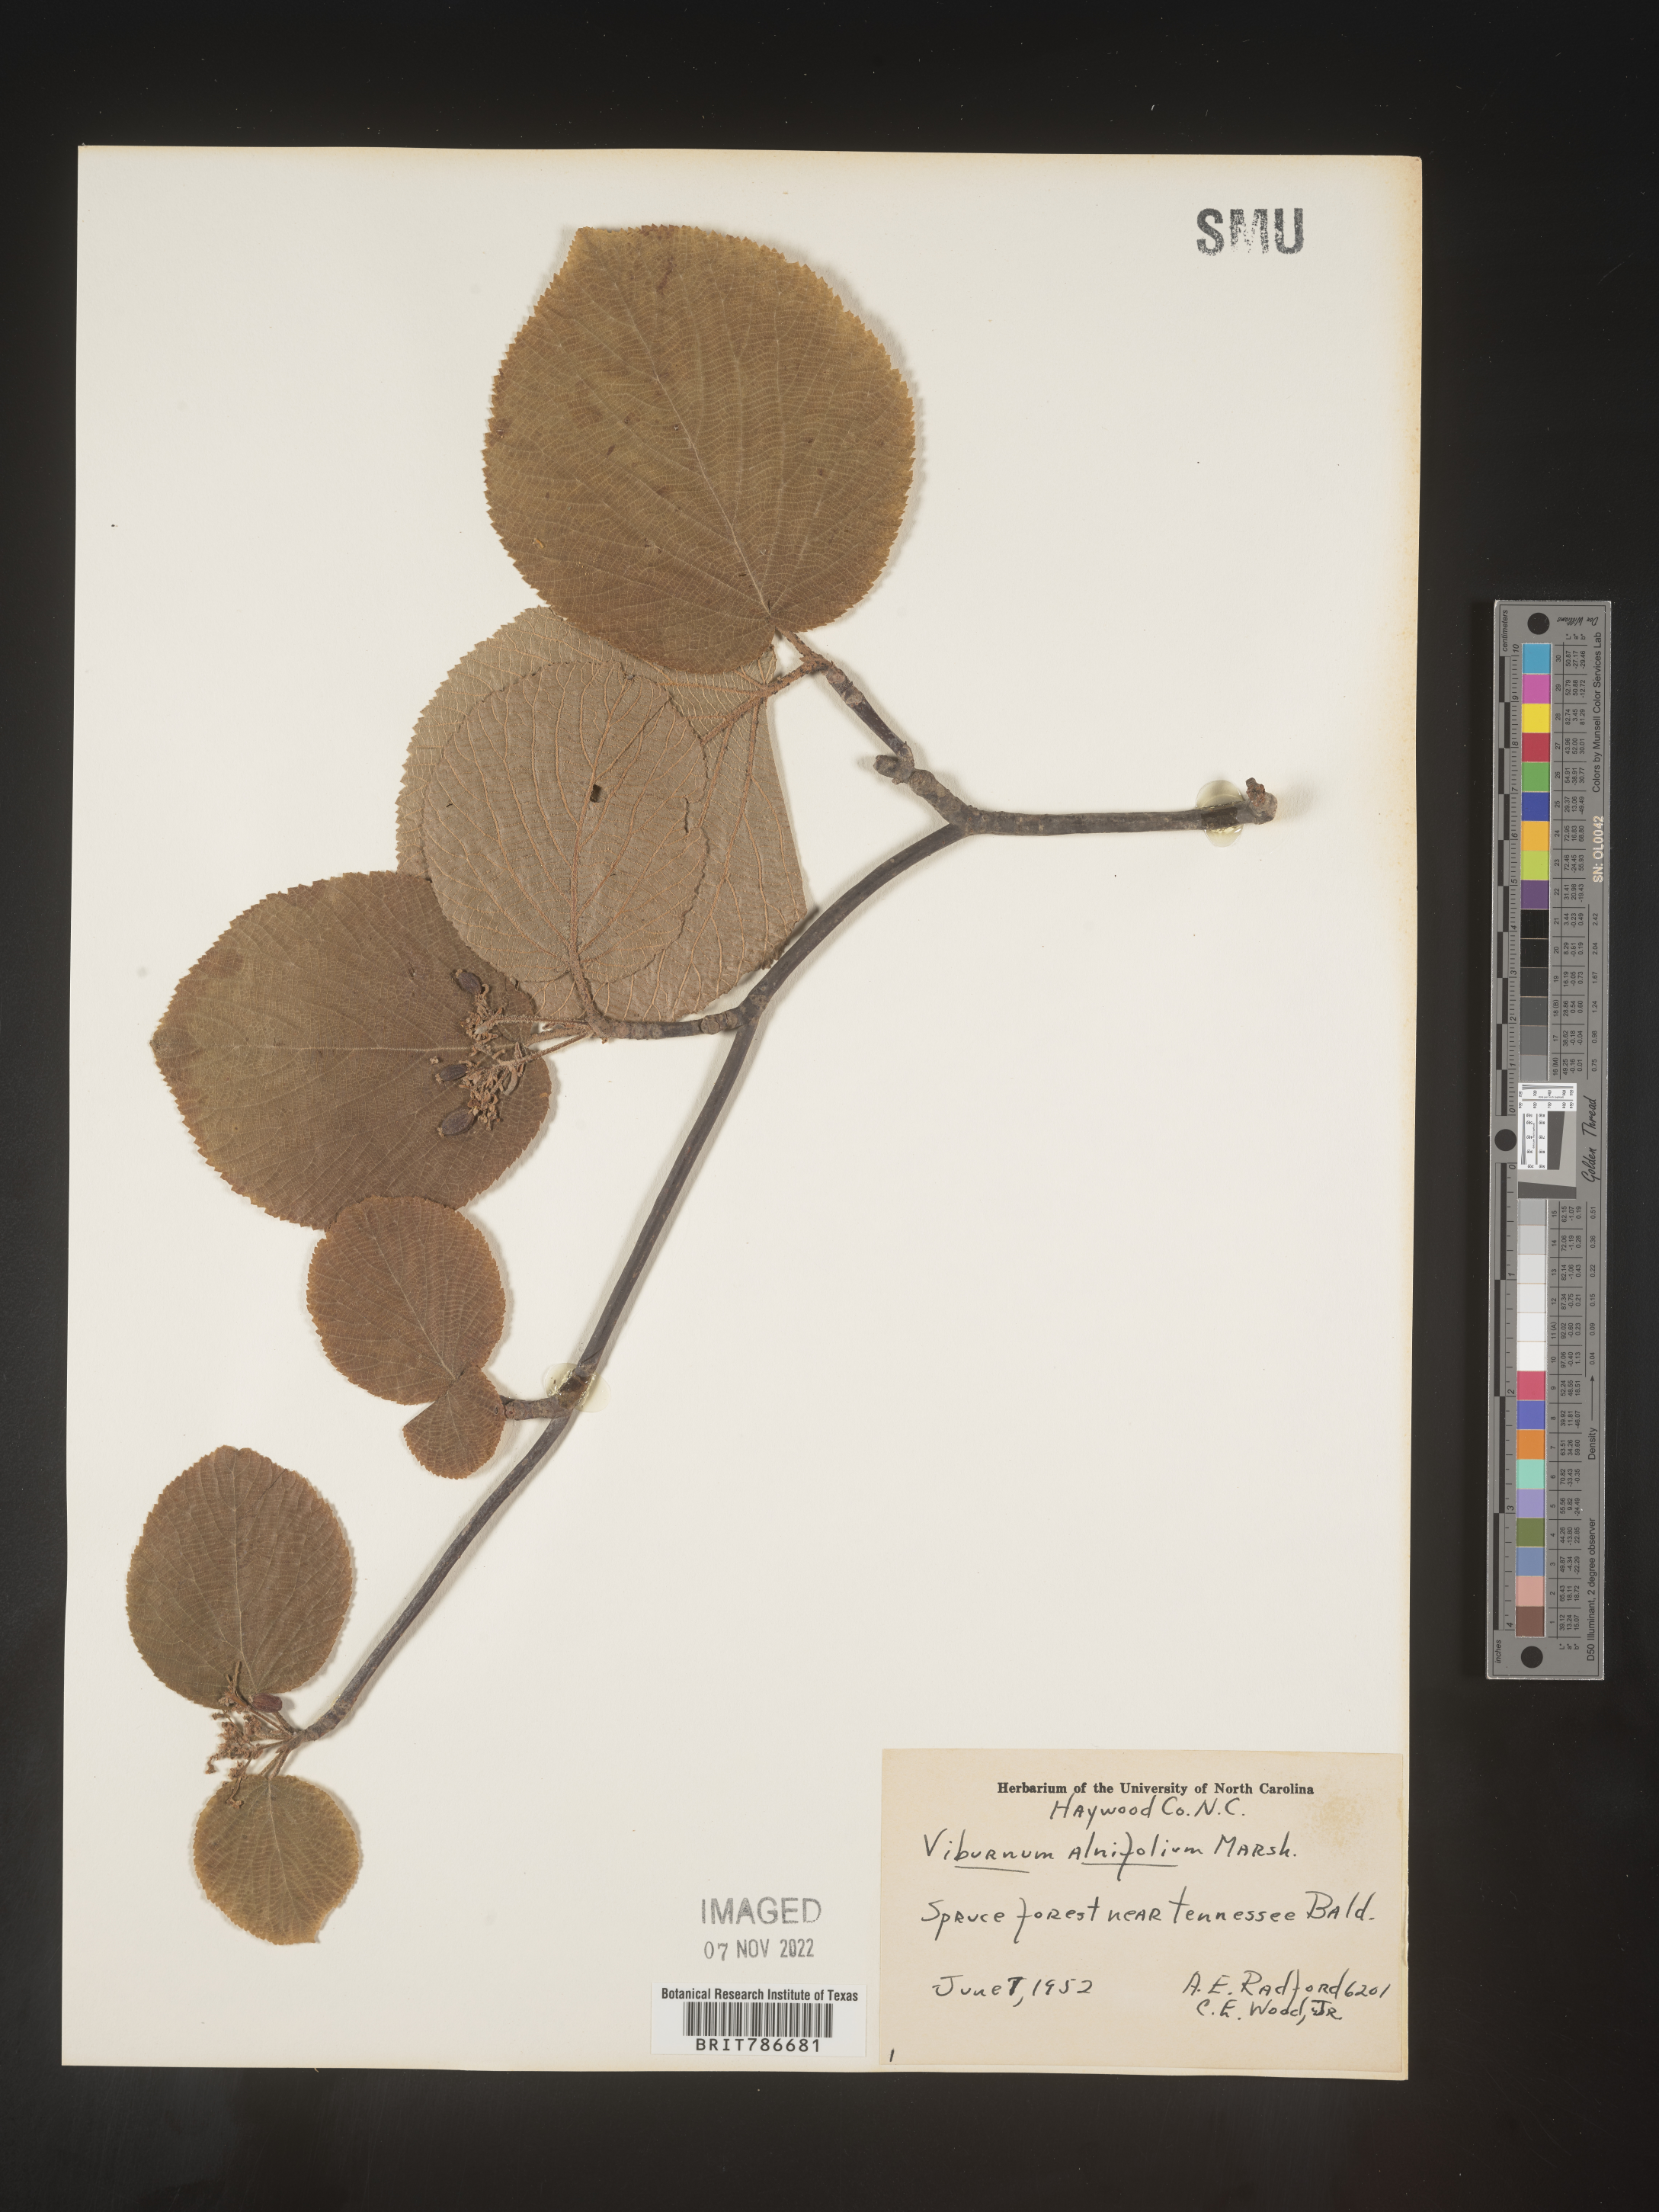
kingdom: Plantae
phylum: Tracheophyta
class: Magnoliopsida
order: Dipsacales
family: Viburnaceae
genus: Viburnum
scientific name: Viburnum lantanoides
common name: Hobblebush
